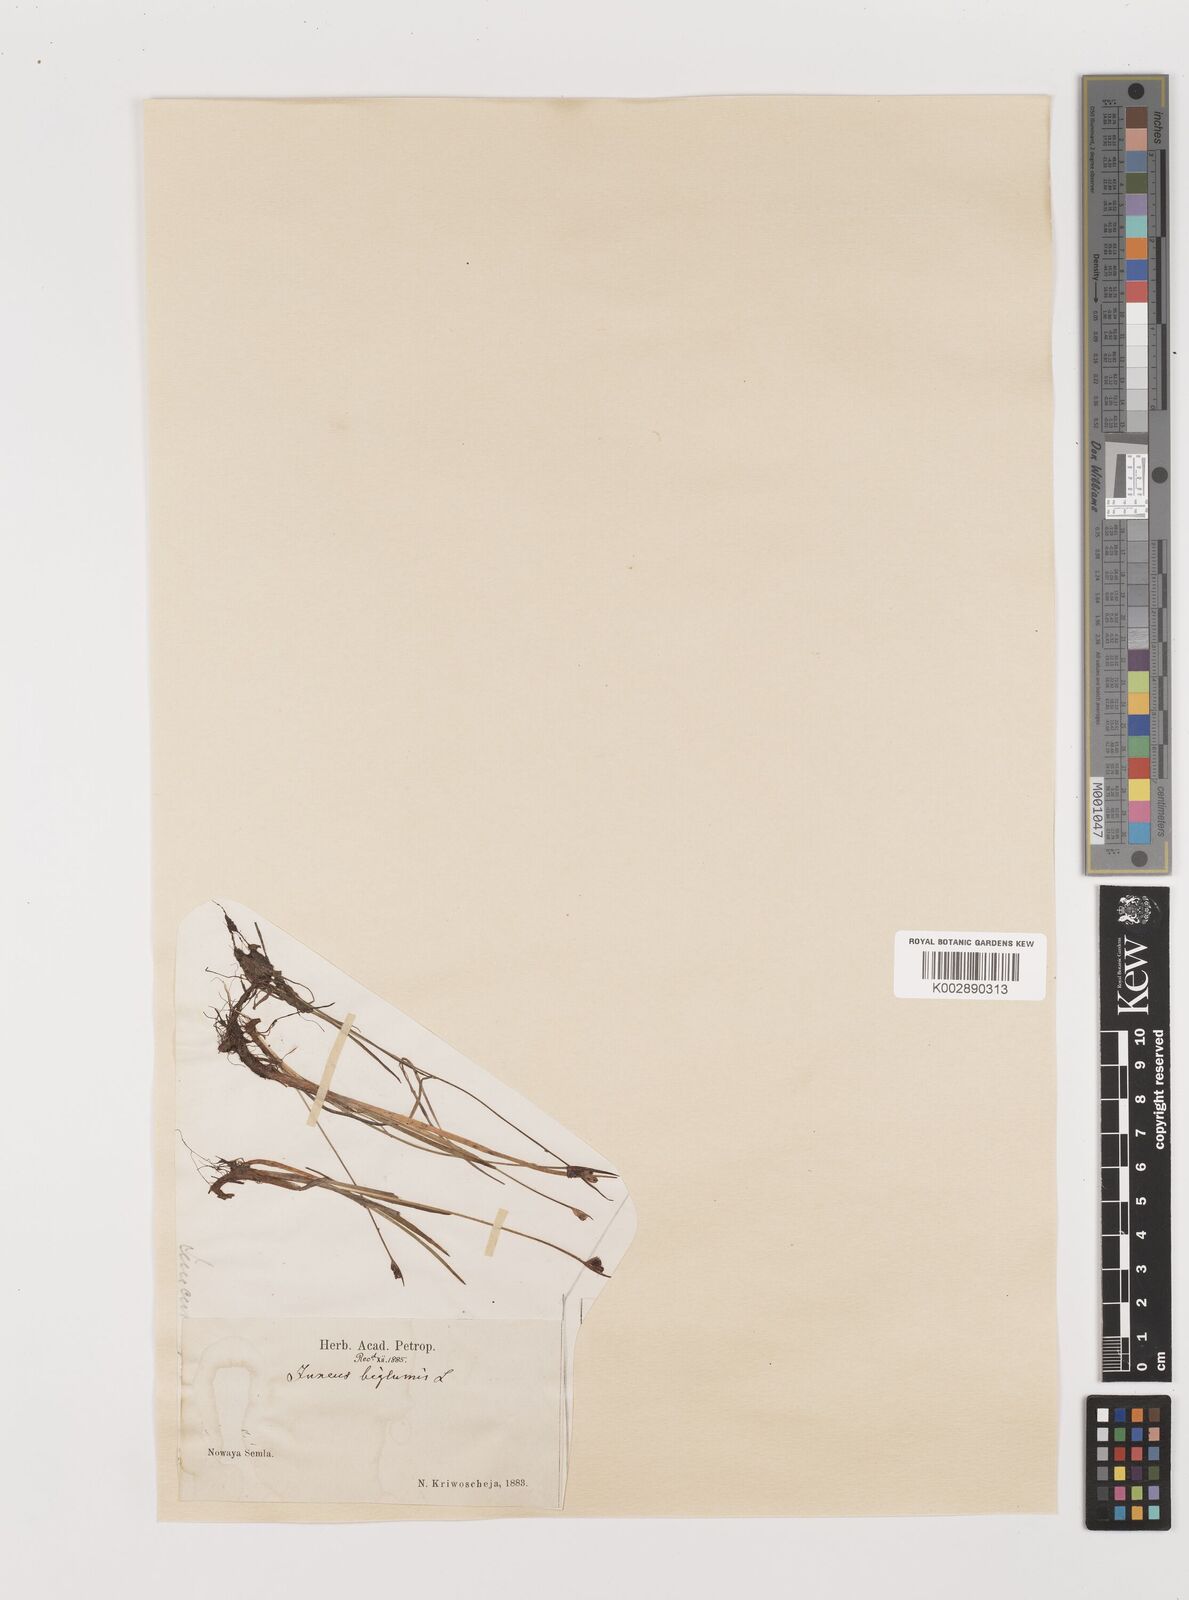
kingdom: Plantae
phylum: Tracheophyta
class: Liliopsida
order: Poales
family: Juncaceae
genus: Juncus
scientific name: Juncus biglumis
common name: Two-flowered rush
